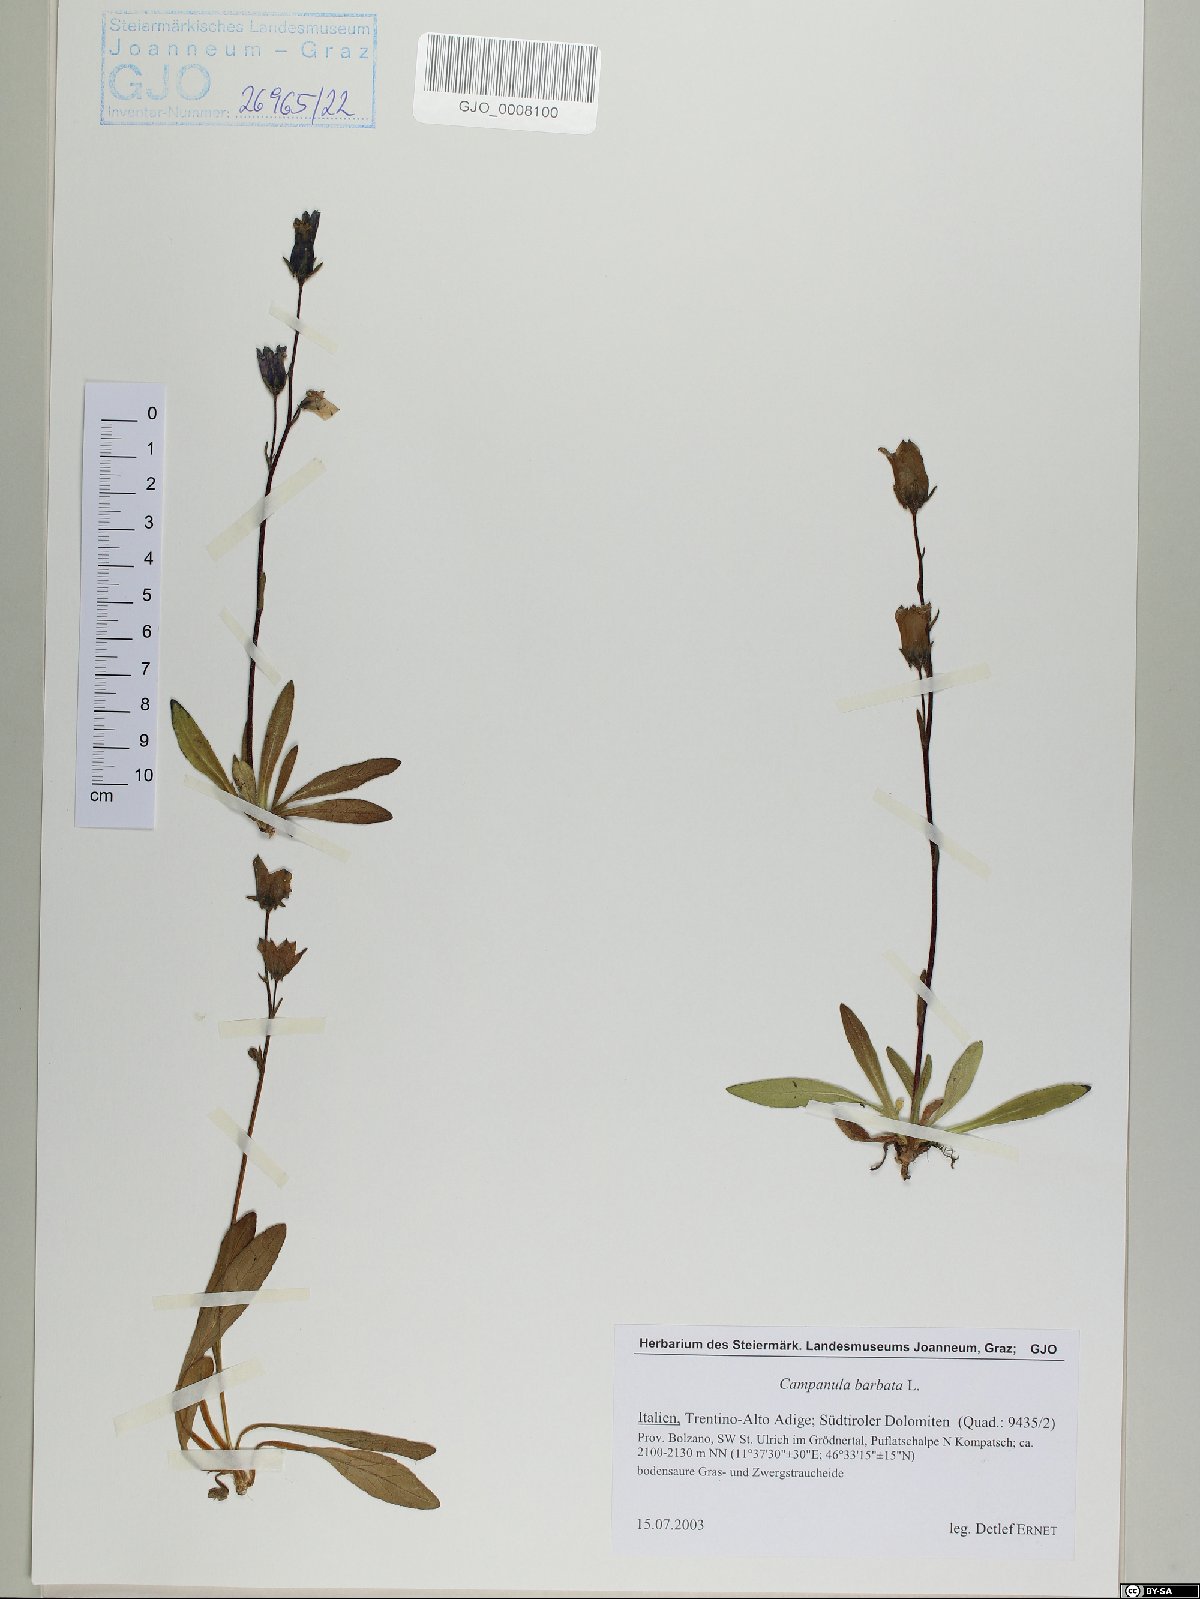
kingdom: Plantae
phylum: Tracheophyta
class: Magnoliopsida
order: Asterales
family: Campanulaceae
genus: Campanula
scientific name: Campanula barbata
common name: Bearded bellflower
